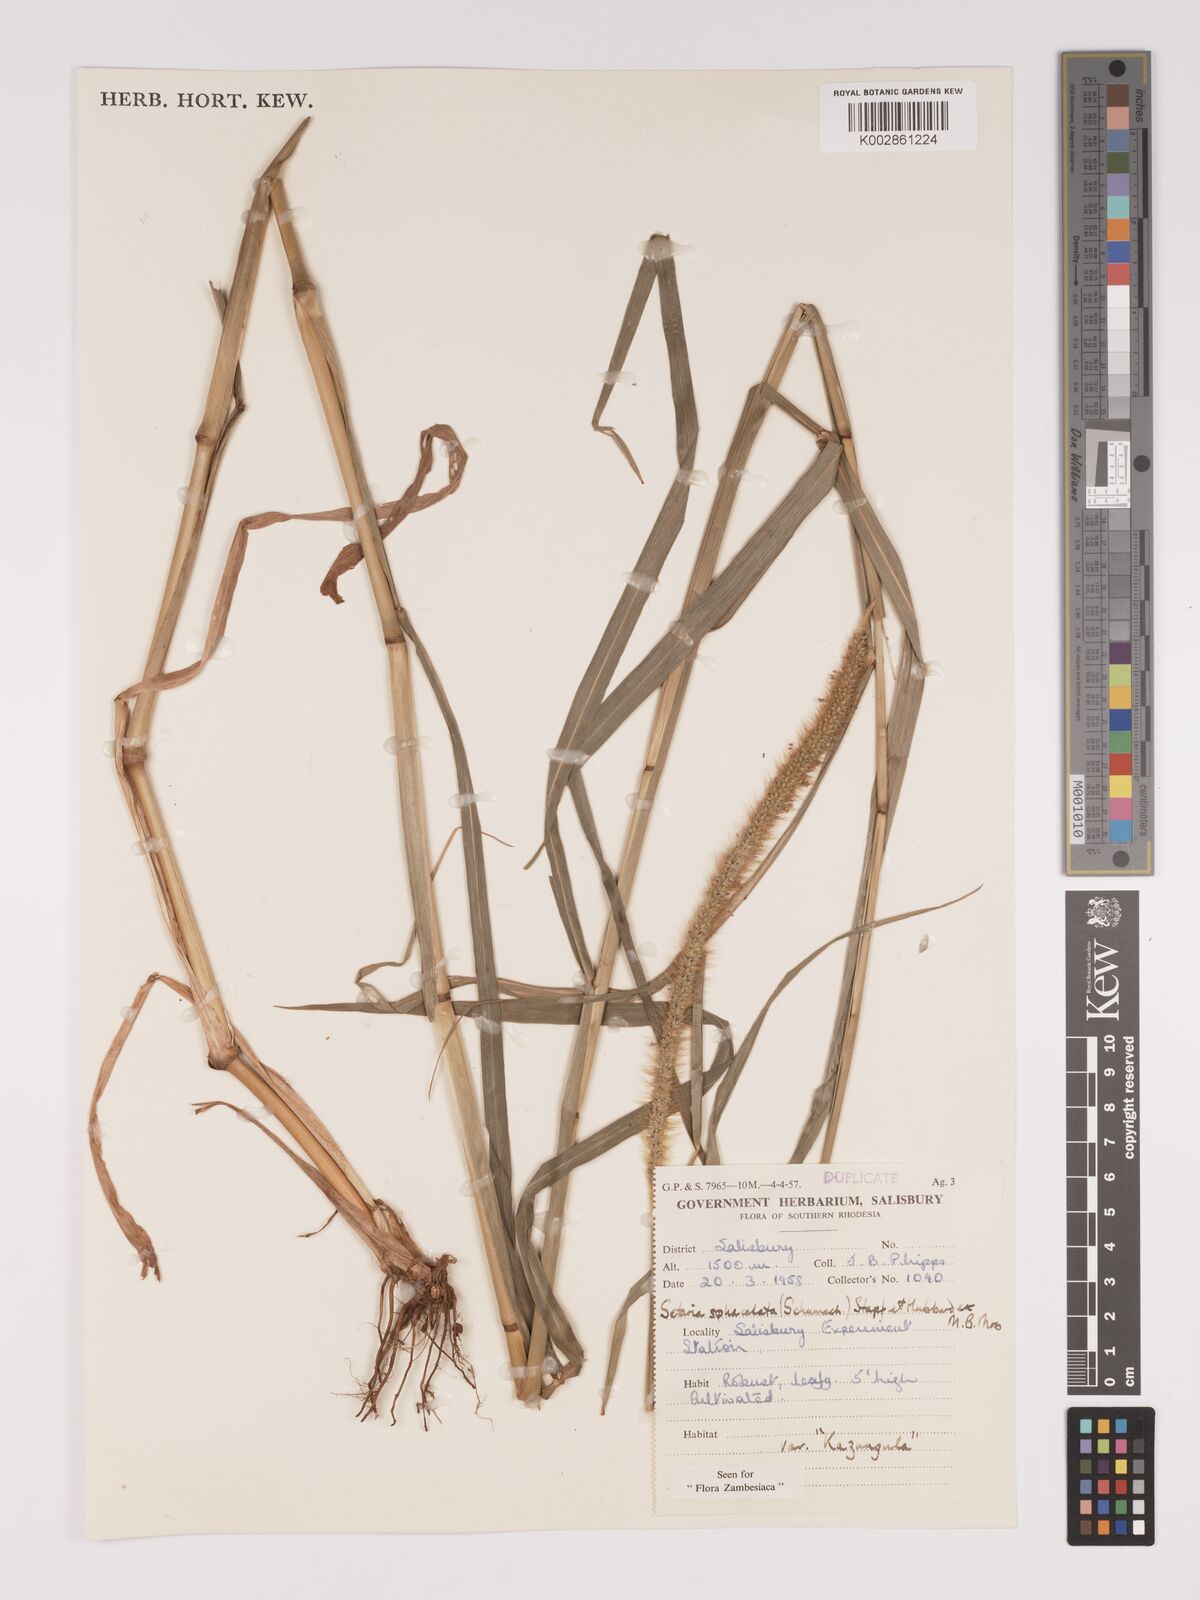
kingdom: Plantae
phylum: Tracheophyta
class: Liliopsida
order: Poales
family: Poaceae
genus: Setaria
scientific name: Setaria sphacelata
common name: African bristlegrass
